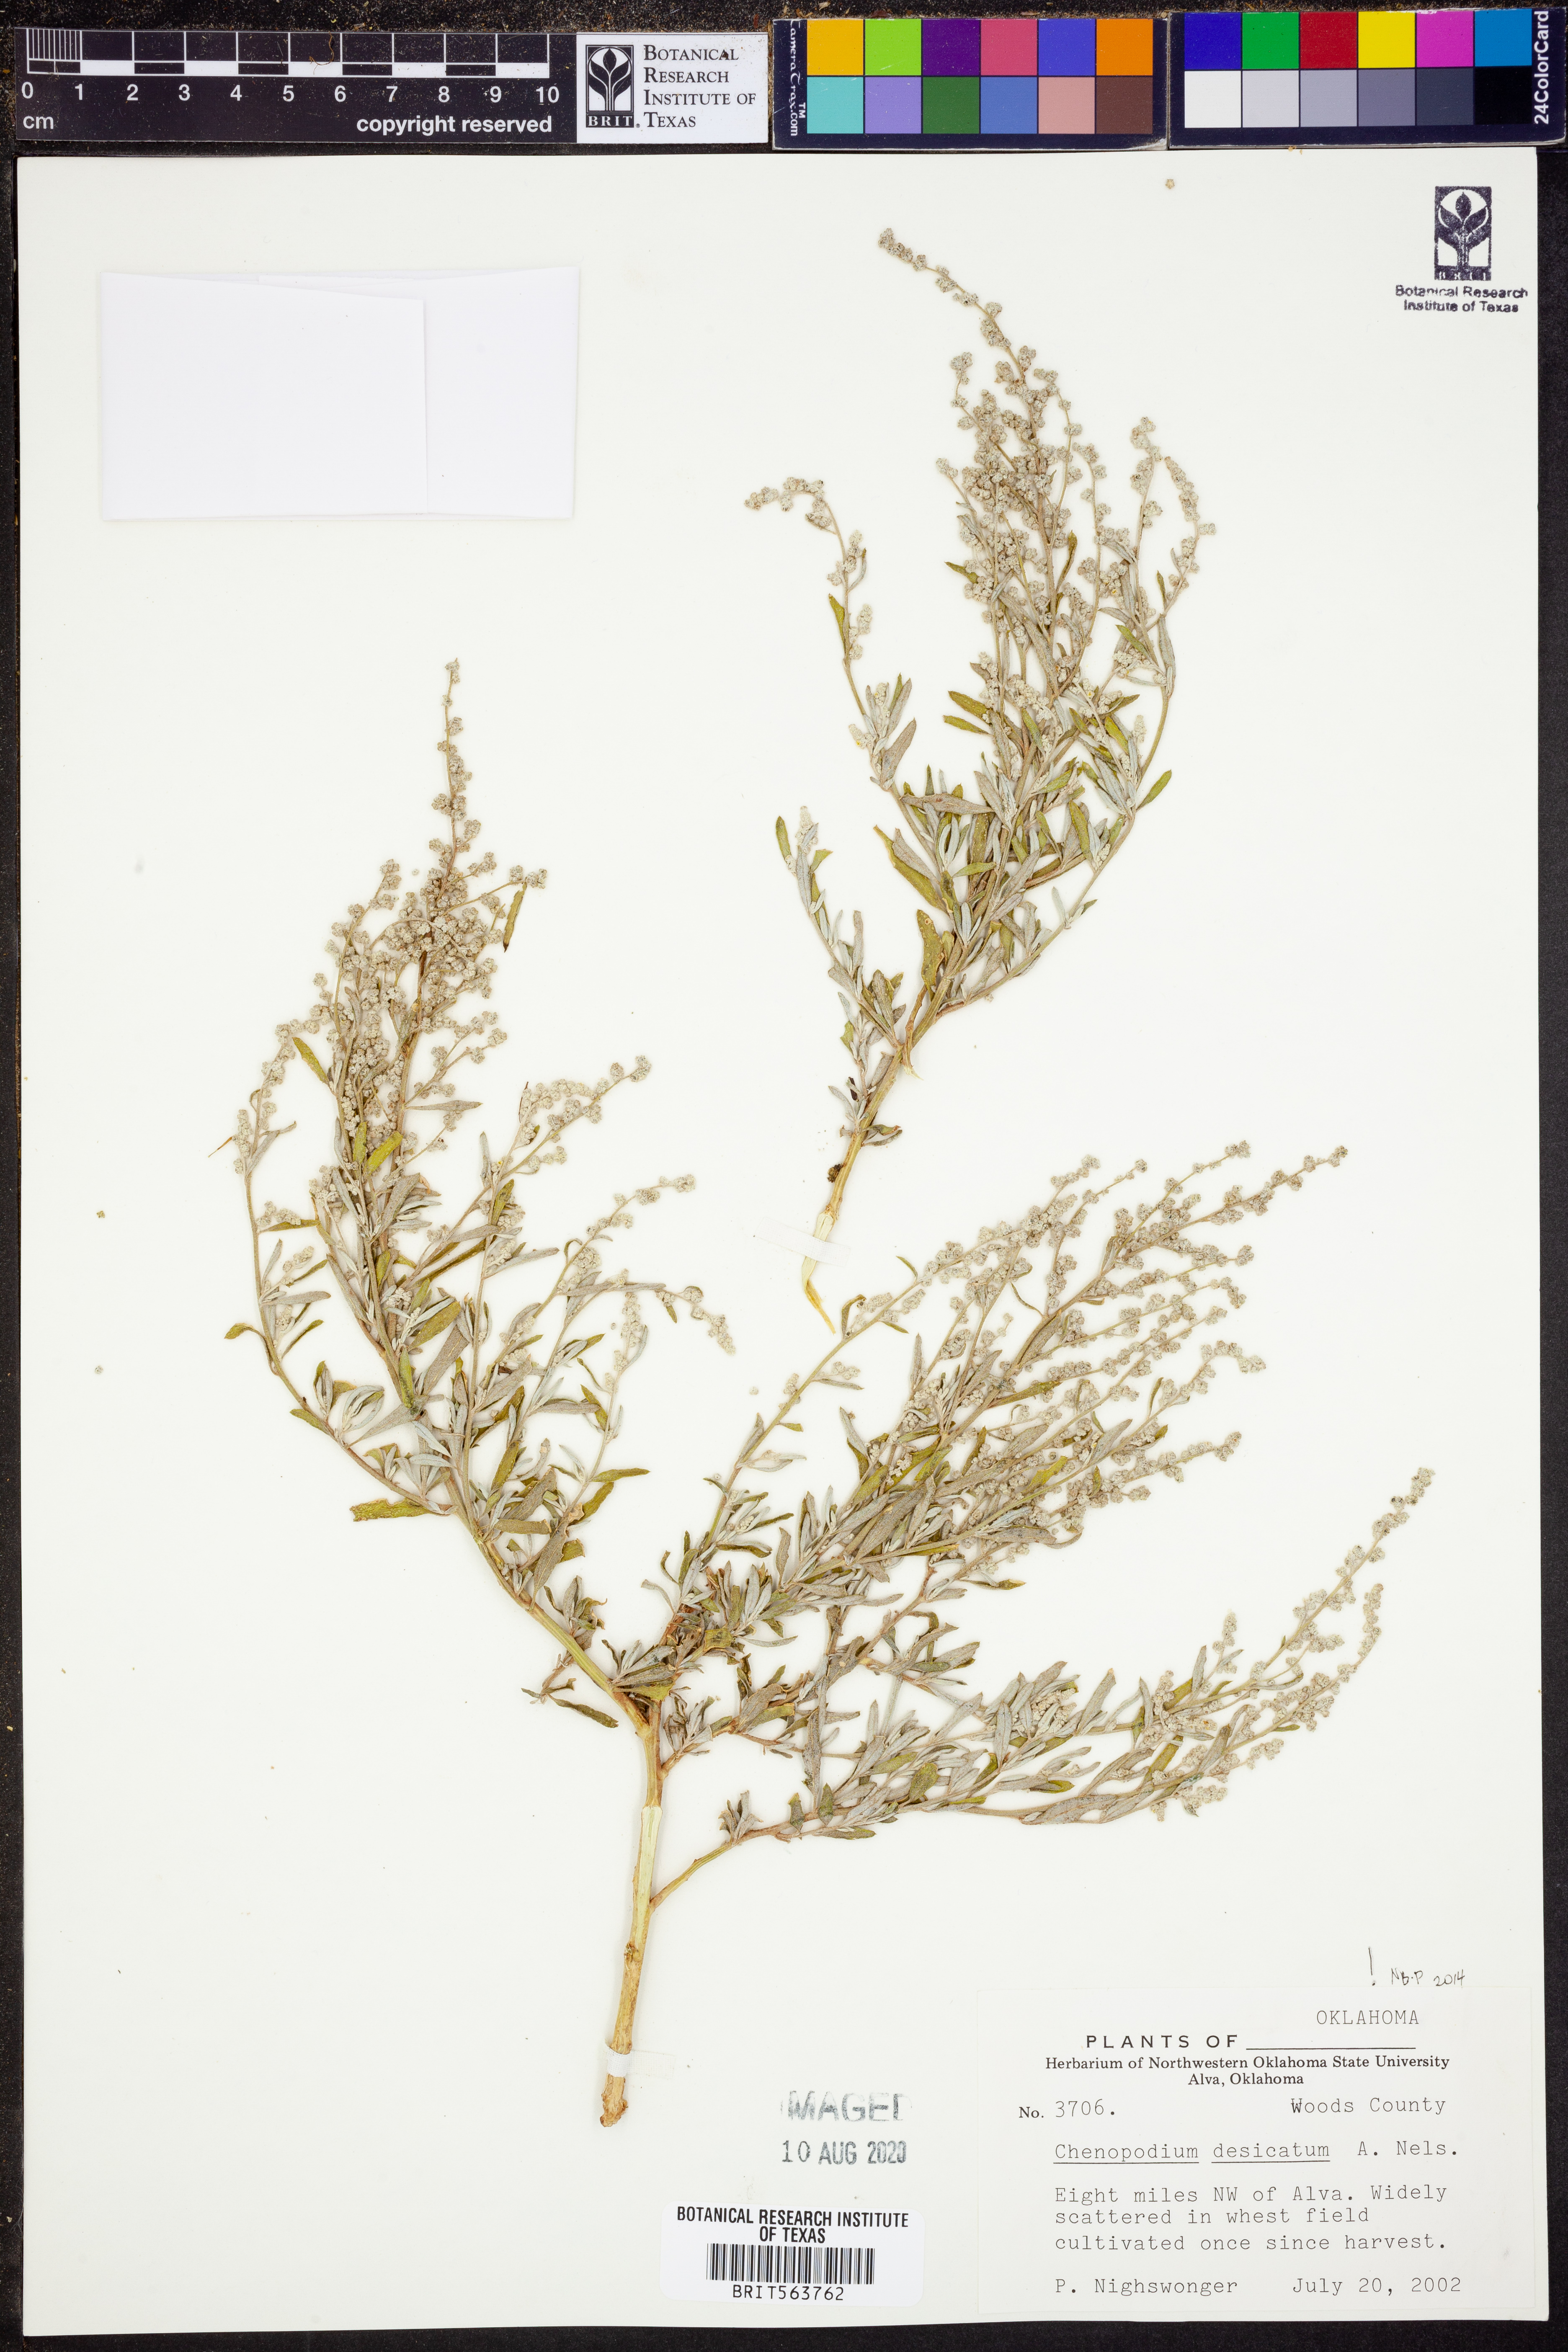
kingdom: Plantae
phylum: Tracheophyta
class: Magnoliopsida
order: Caryophyllales
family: Amaranthaceae
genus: Chenopodium
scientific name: Chenopodium desiccatum
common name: Slimleaf goosefoot
